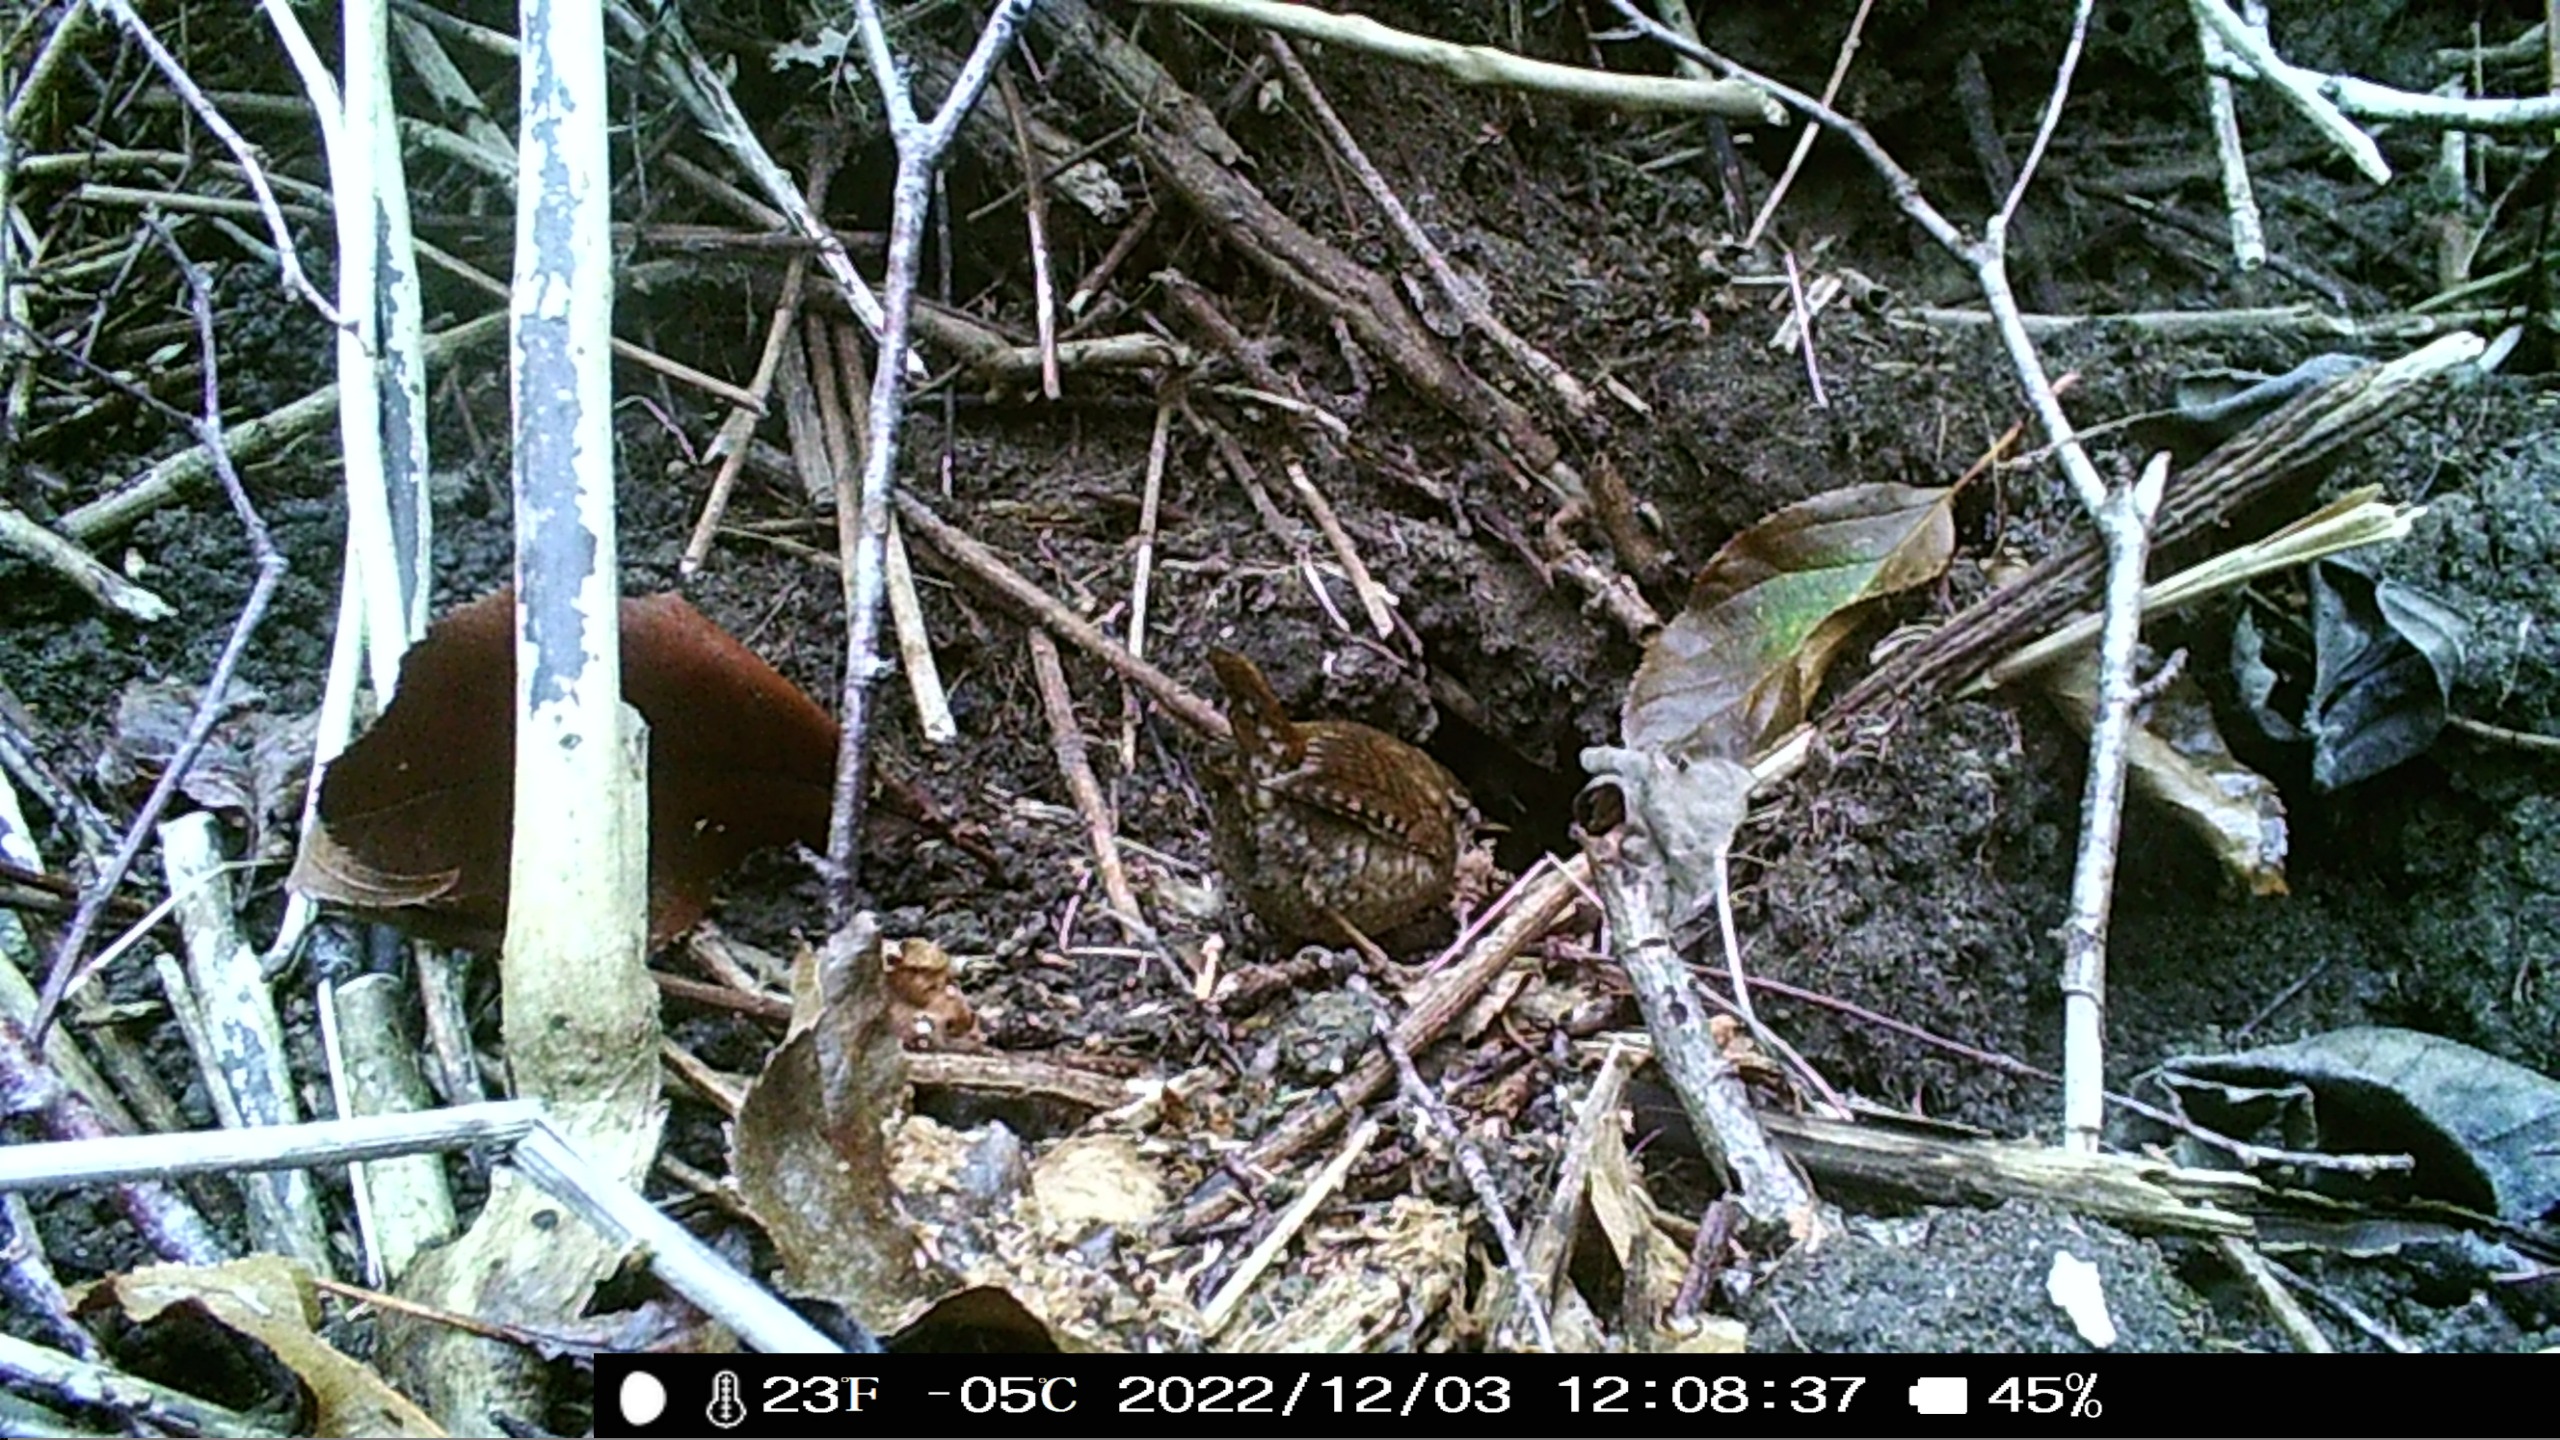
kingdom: Animalia
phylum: Chordata
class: Aves
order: Passeriformes
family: Troglodytidae
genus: Troglodytes
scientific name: Troglodytes troglodytes
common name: Gærdesmutte
